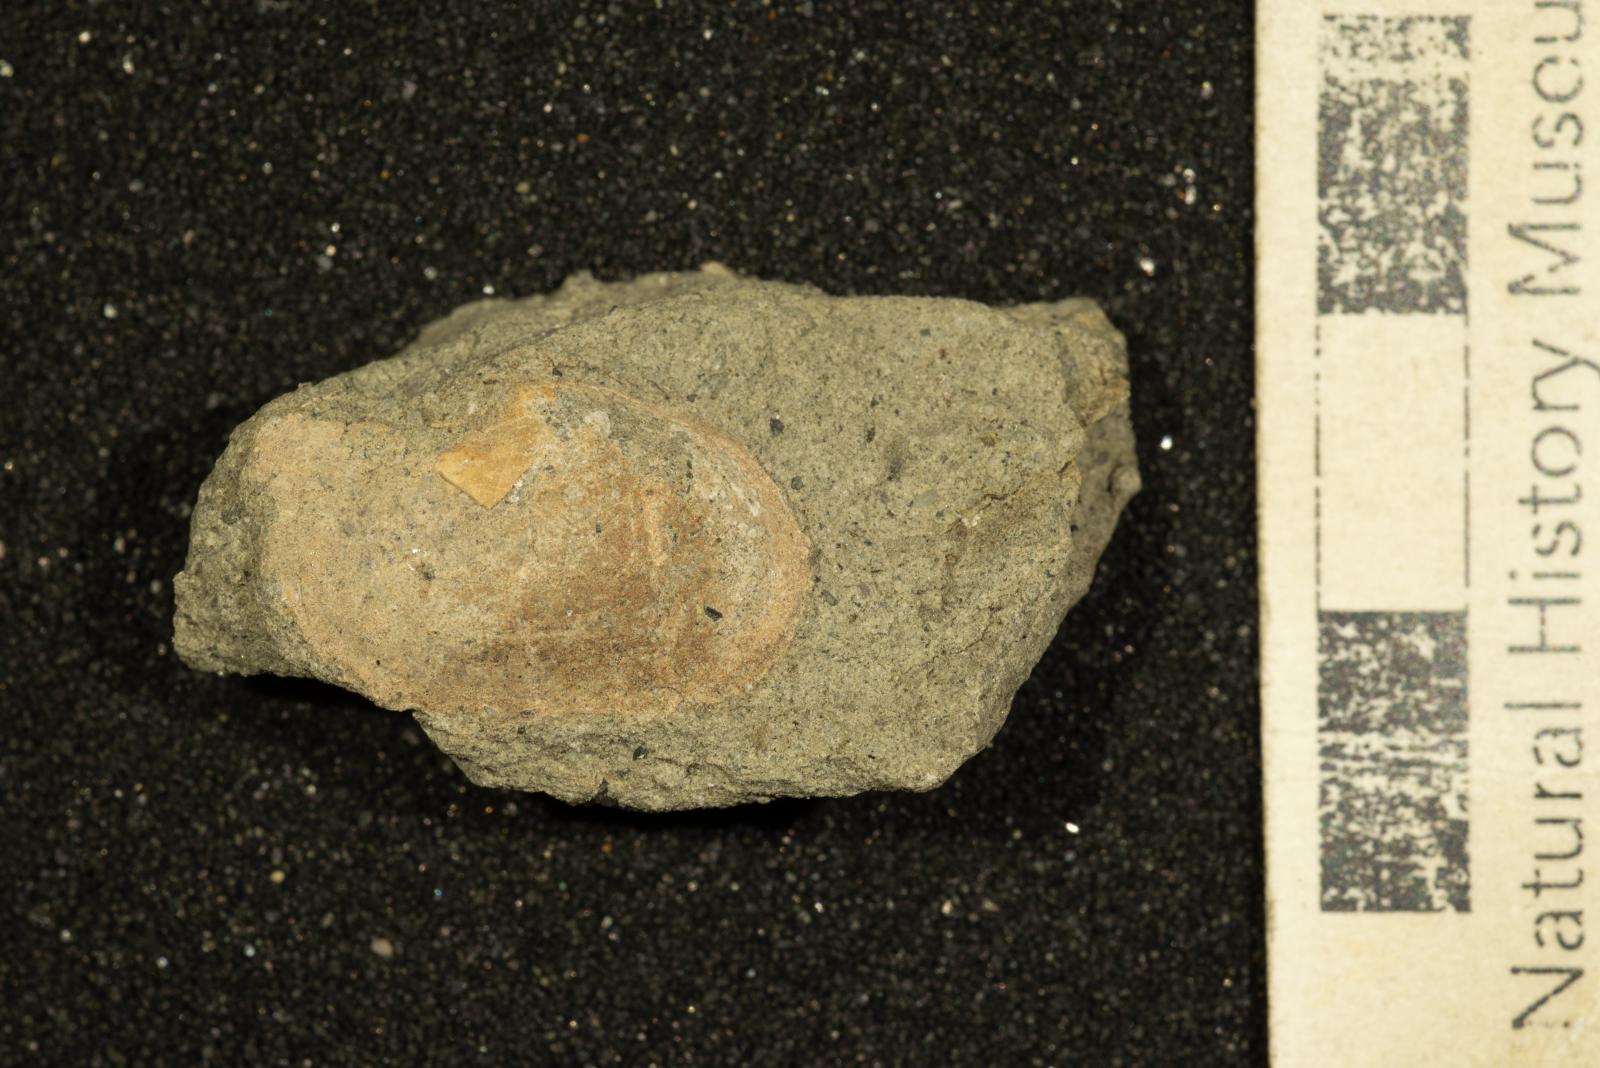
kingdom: Animalia
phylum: Mollusca
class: Bivalvia
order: Cardiida
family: Tancrediidae
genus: Meekia
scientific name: Meekia daileyi
